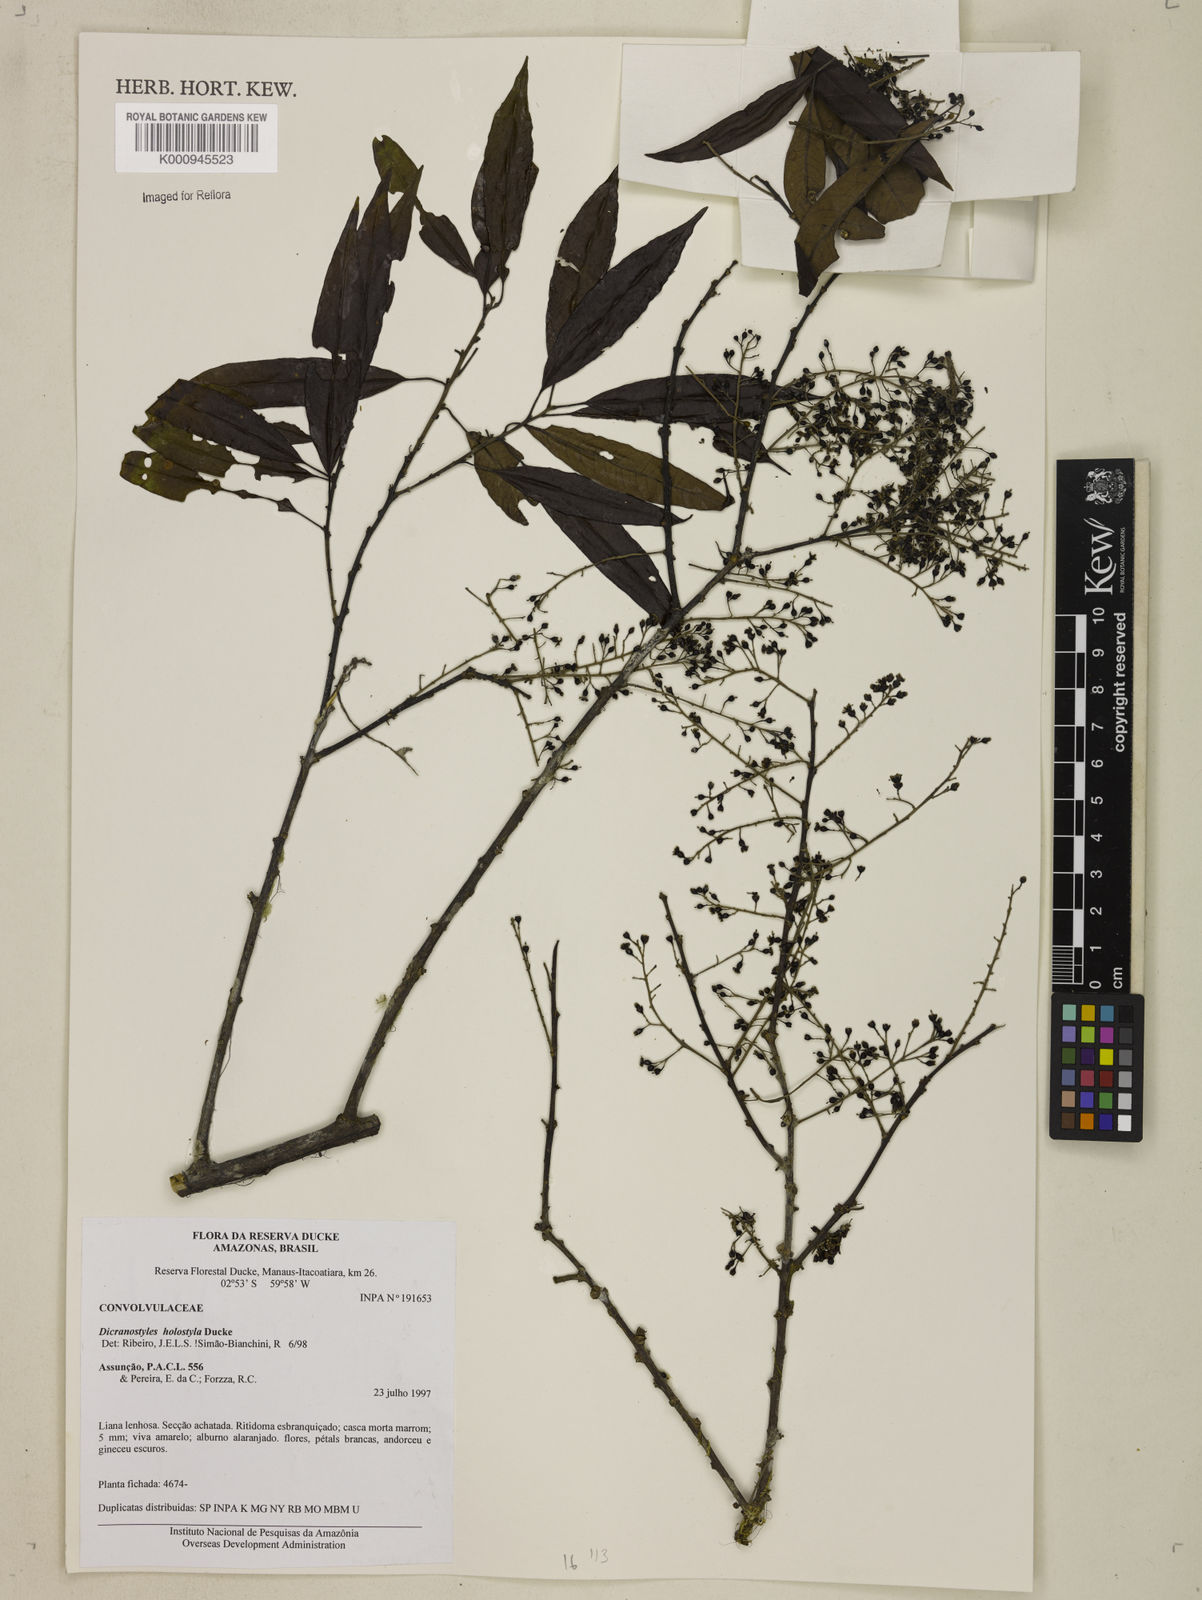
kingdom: Plantae
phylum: Tracheophyta
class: Magnoliopsida
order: Solanales
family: Convolvulaceae
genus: Dicranostyles
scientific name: Dicranostyles holostyla
